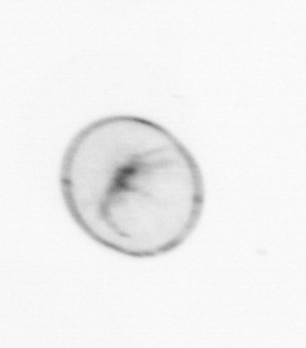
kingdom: Chromista
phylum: Myzozoa
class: Dinophyceae
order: Noctilucales
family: Noctilucaceae
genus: Noctiluca
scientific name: Noctiluca scintillans
